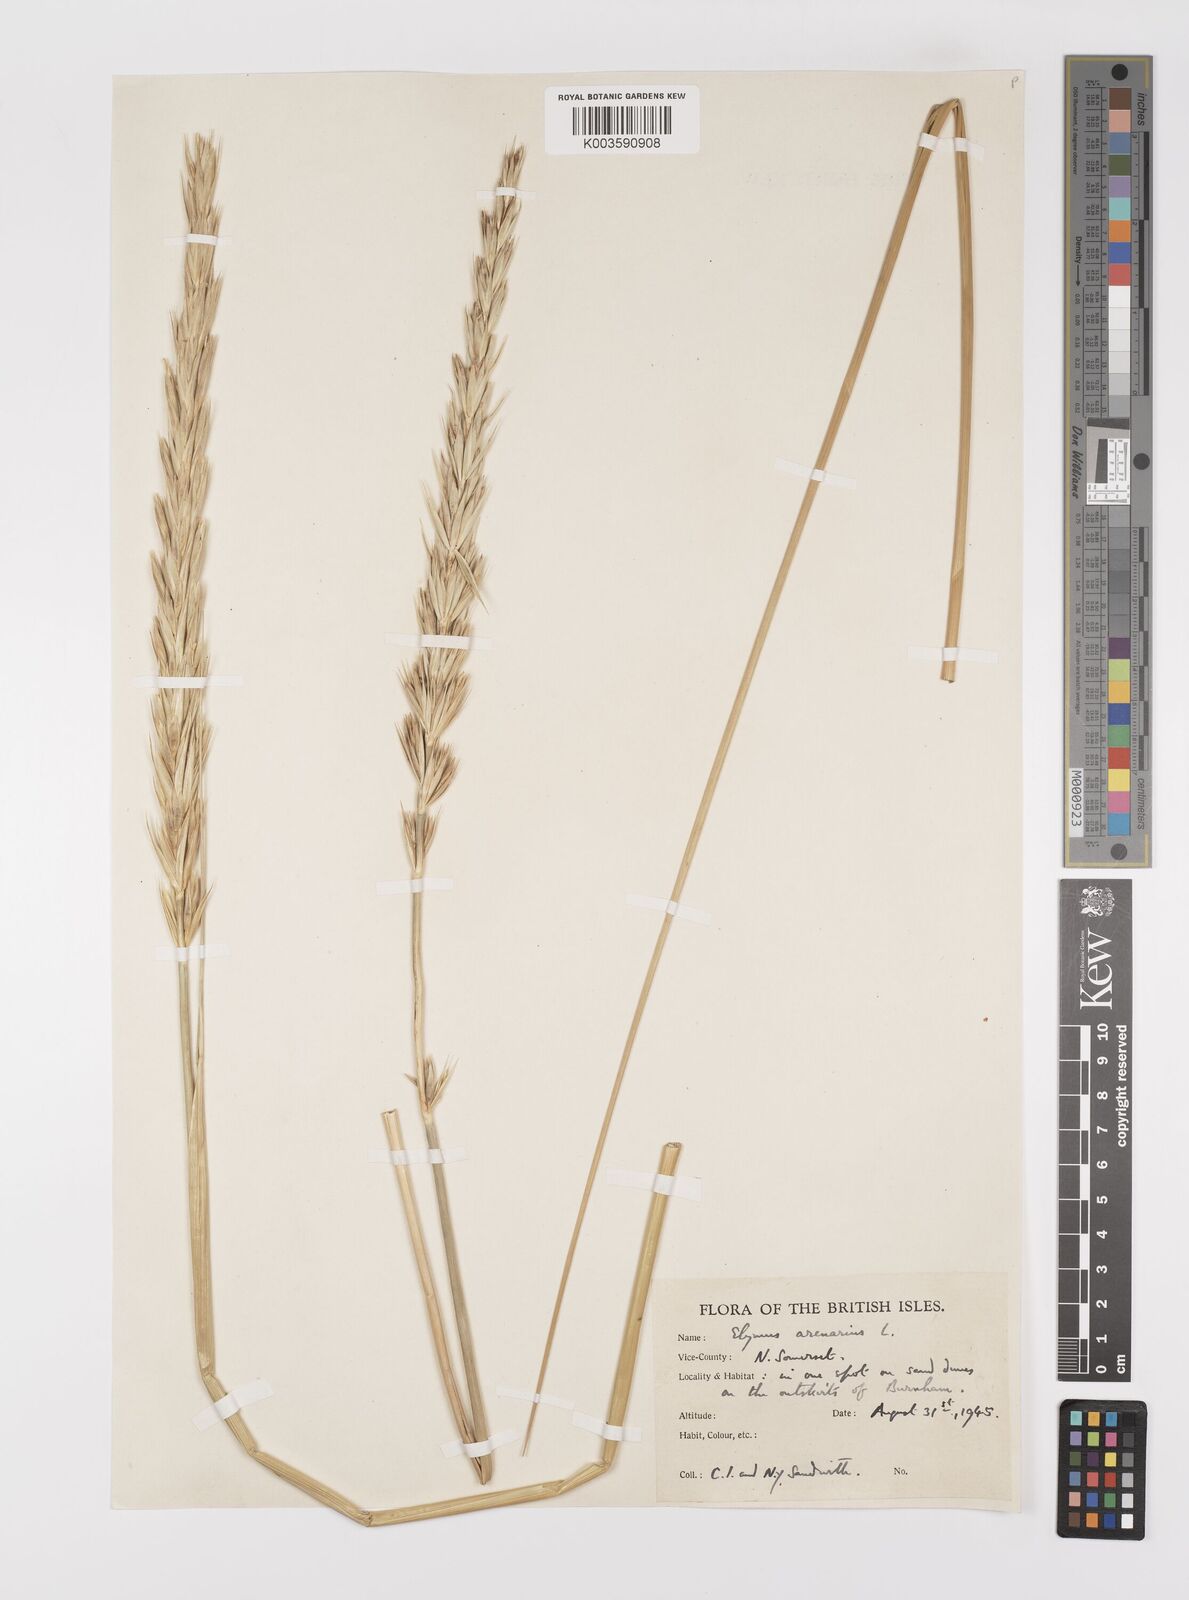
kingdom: Plantae
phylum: Tracheophyta
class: Liliopsida
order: Poales
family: Poaceae
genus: Leymus
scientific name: Leymus arenarius
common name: Lyme-grass
